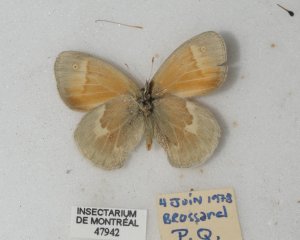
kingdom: Animalia
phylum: Arthropoda
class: Insecta
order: Lepidoptera
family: Nymphalidae
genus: Coenonympha
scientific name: Coenonympha tullia
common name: Large Heath
